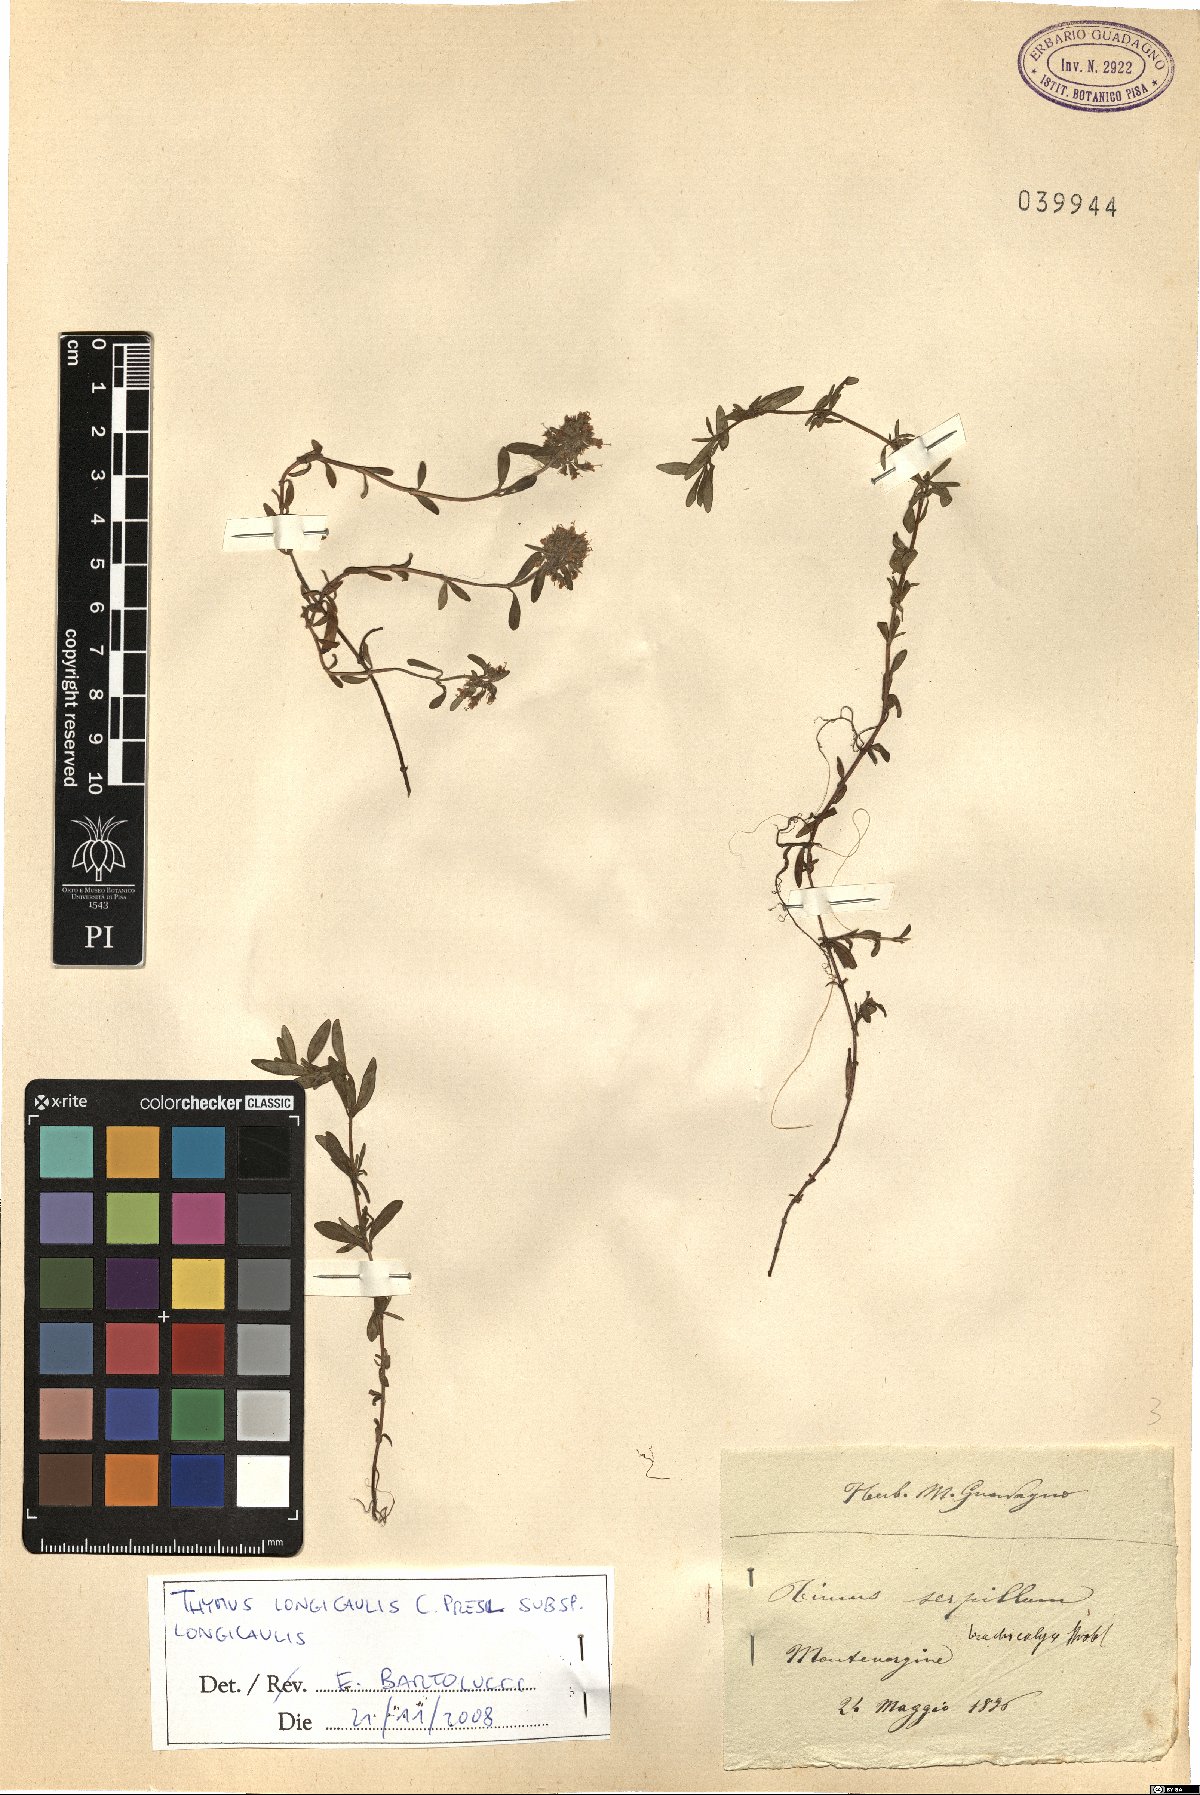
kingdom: Plantae
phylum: Tracheophyta
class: Magnoliopsida
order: Lamiales
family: Lamiaceae
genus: Thymus
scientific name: Thymus longicaulis
